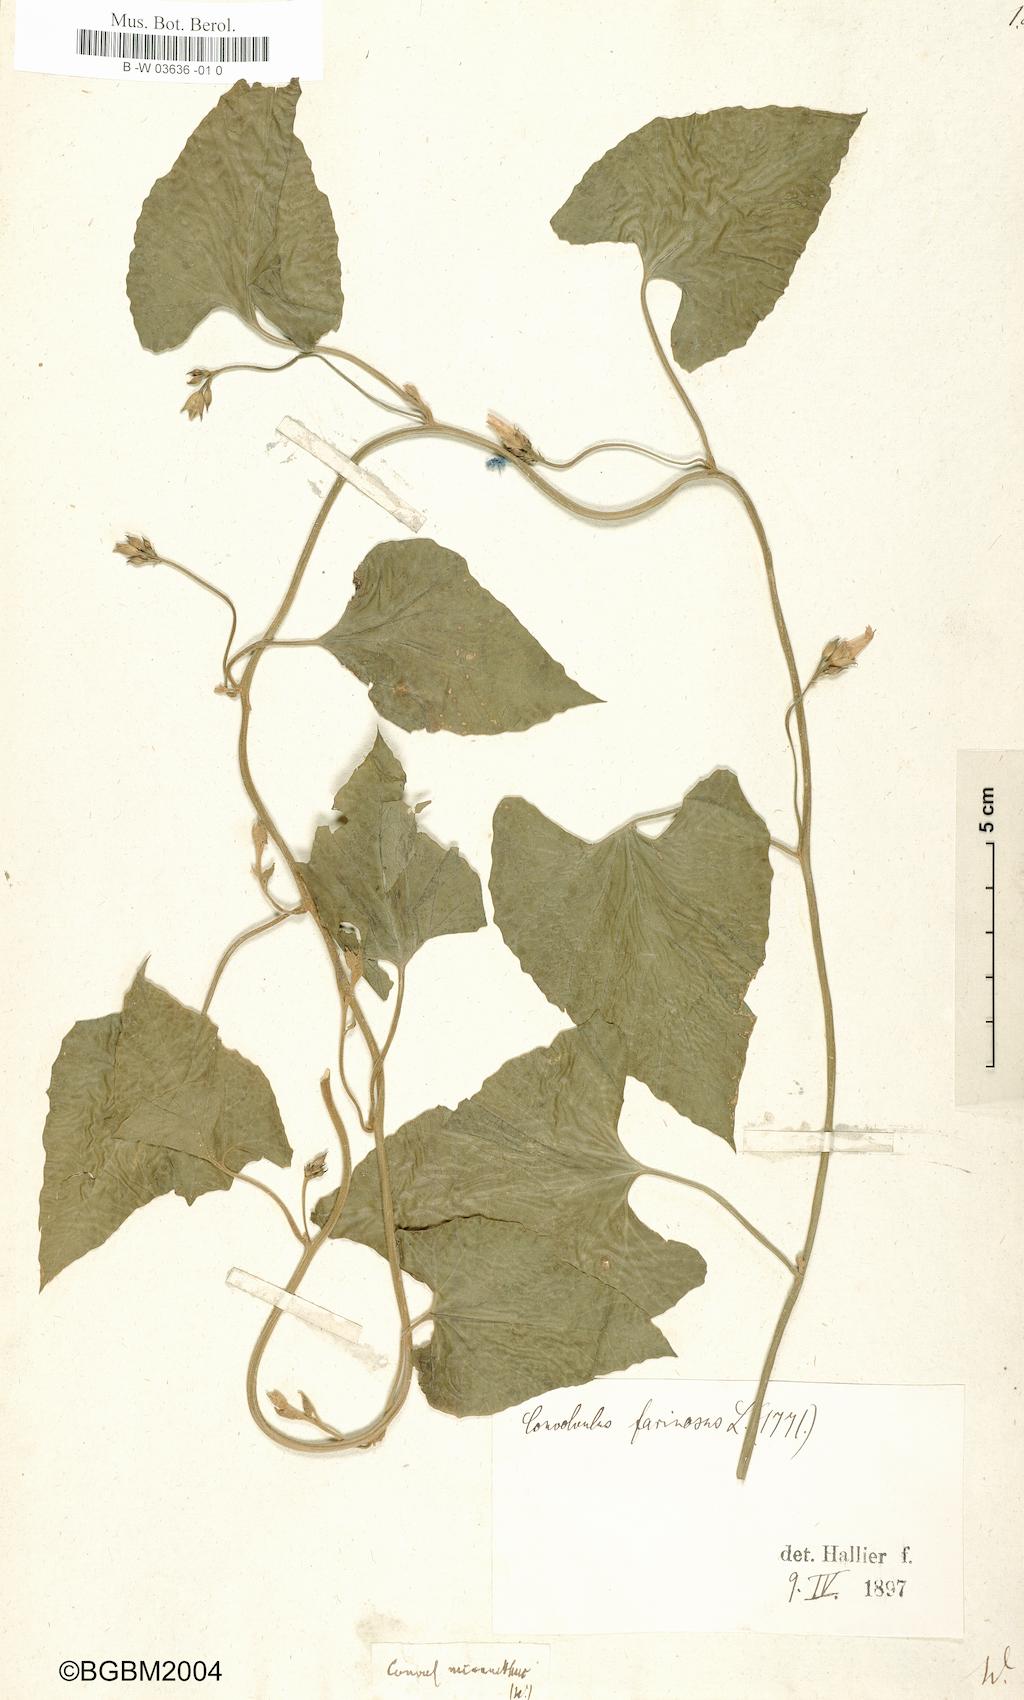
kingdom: Plantae
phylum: Tracheophyta
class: Magnoliopsida
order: Solanales
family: Convolvulaceae
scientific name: Convolvulaceae
